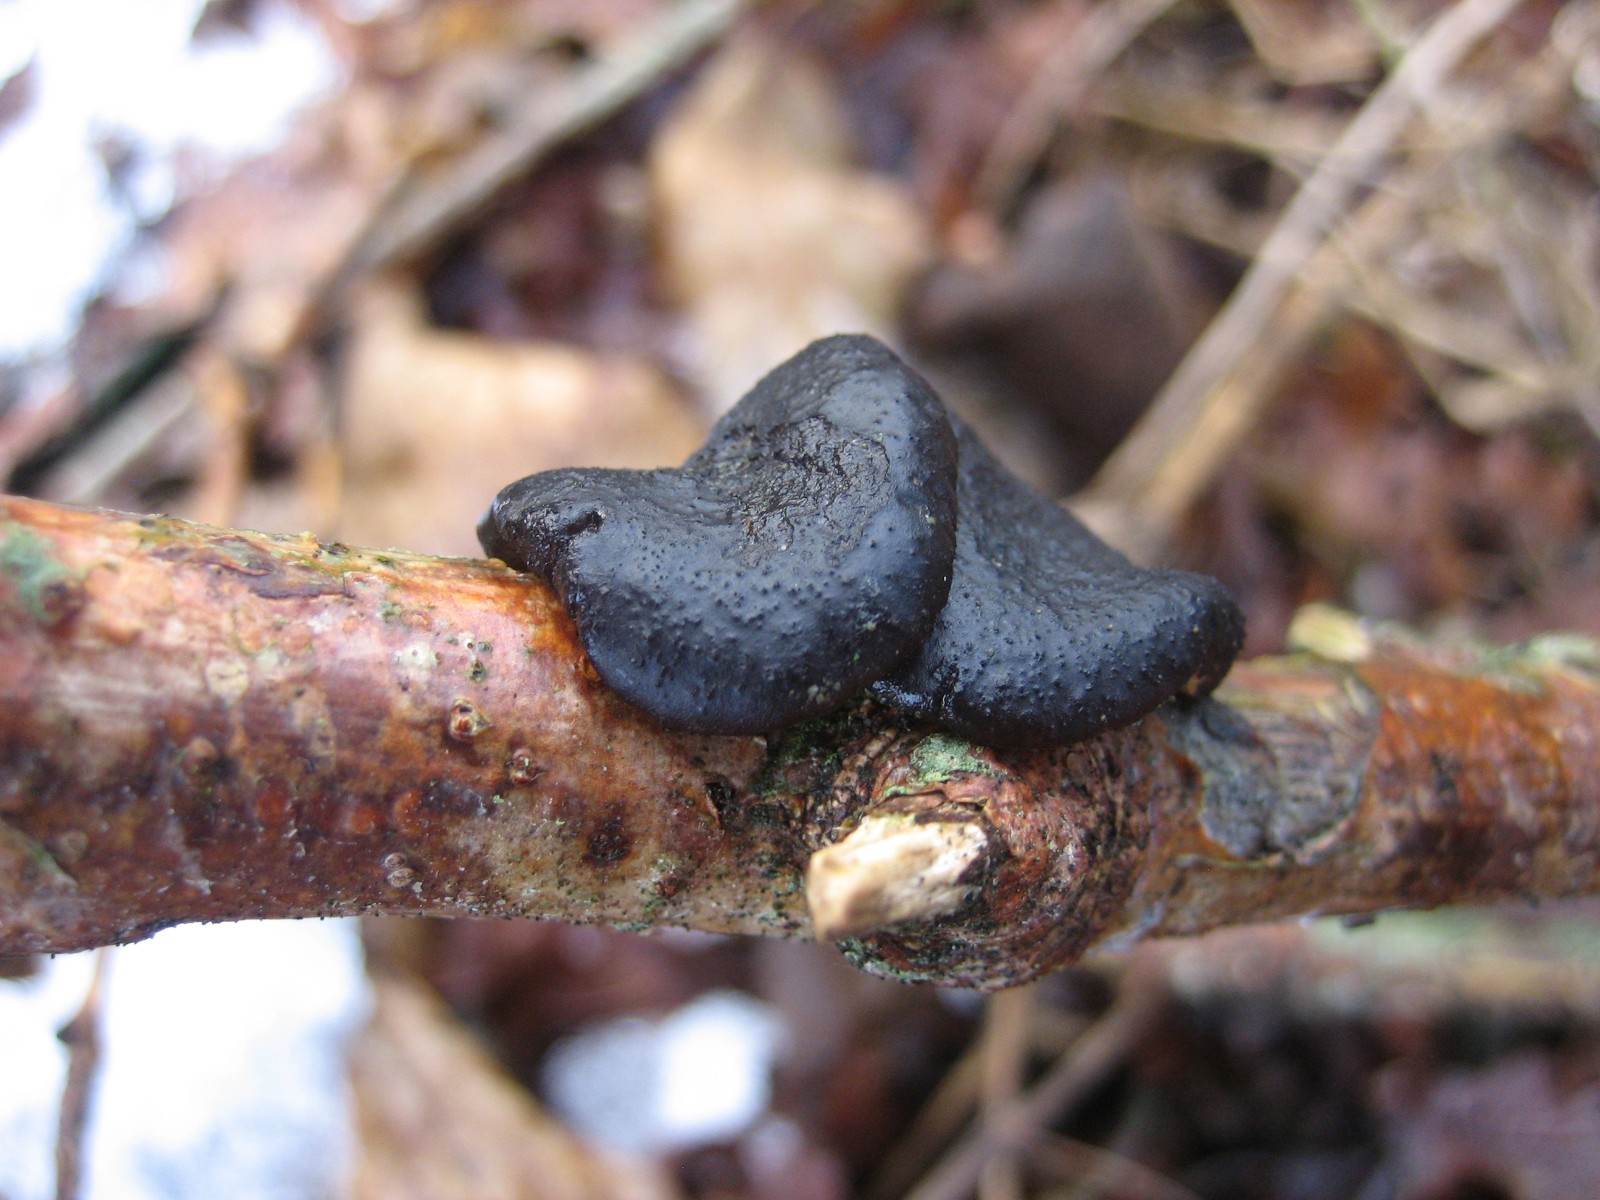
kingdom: Fungi
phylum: Basidiomycota
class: Agaricomycetes
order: Auriculariales
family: Auriculariaceae
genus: Exidia
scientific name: Exidia glandulosa
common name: ege-bævretop
